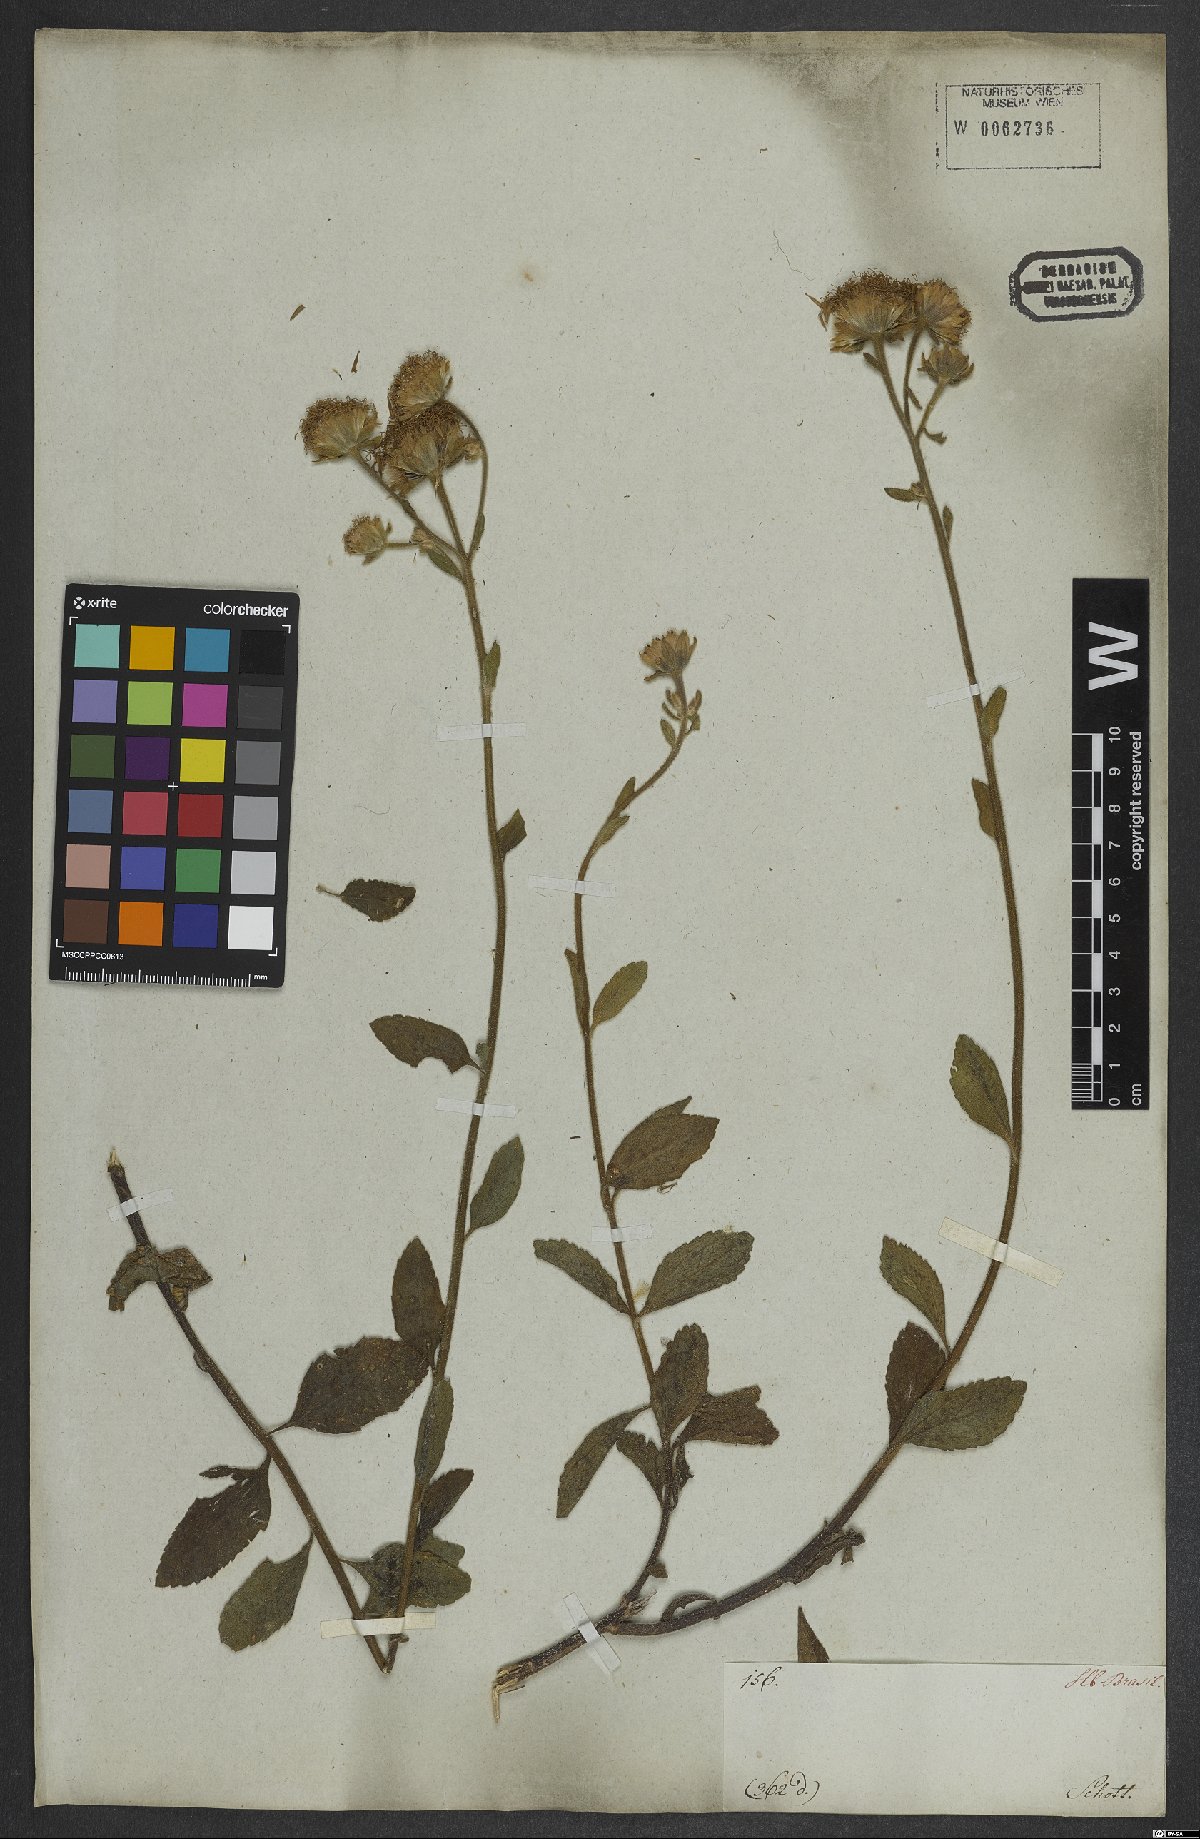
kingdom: Plantae
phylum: Tracheophyta
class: Magnoliopsida
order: Asterales
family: Asteraceae
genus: Ageratum
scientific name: Ageratum
